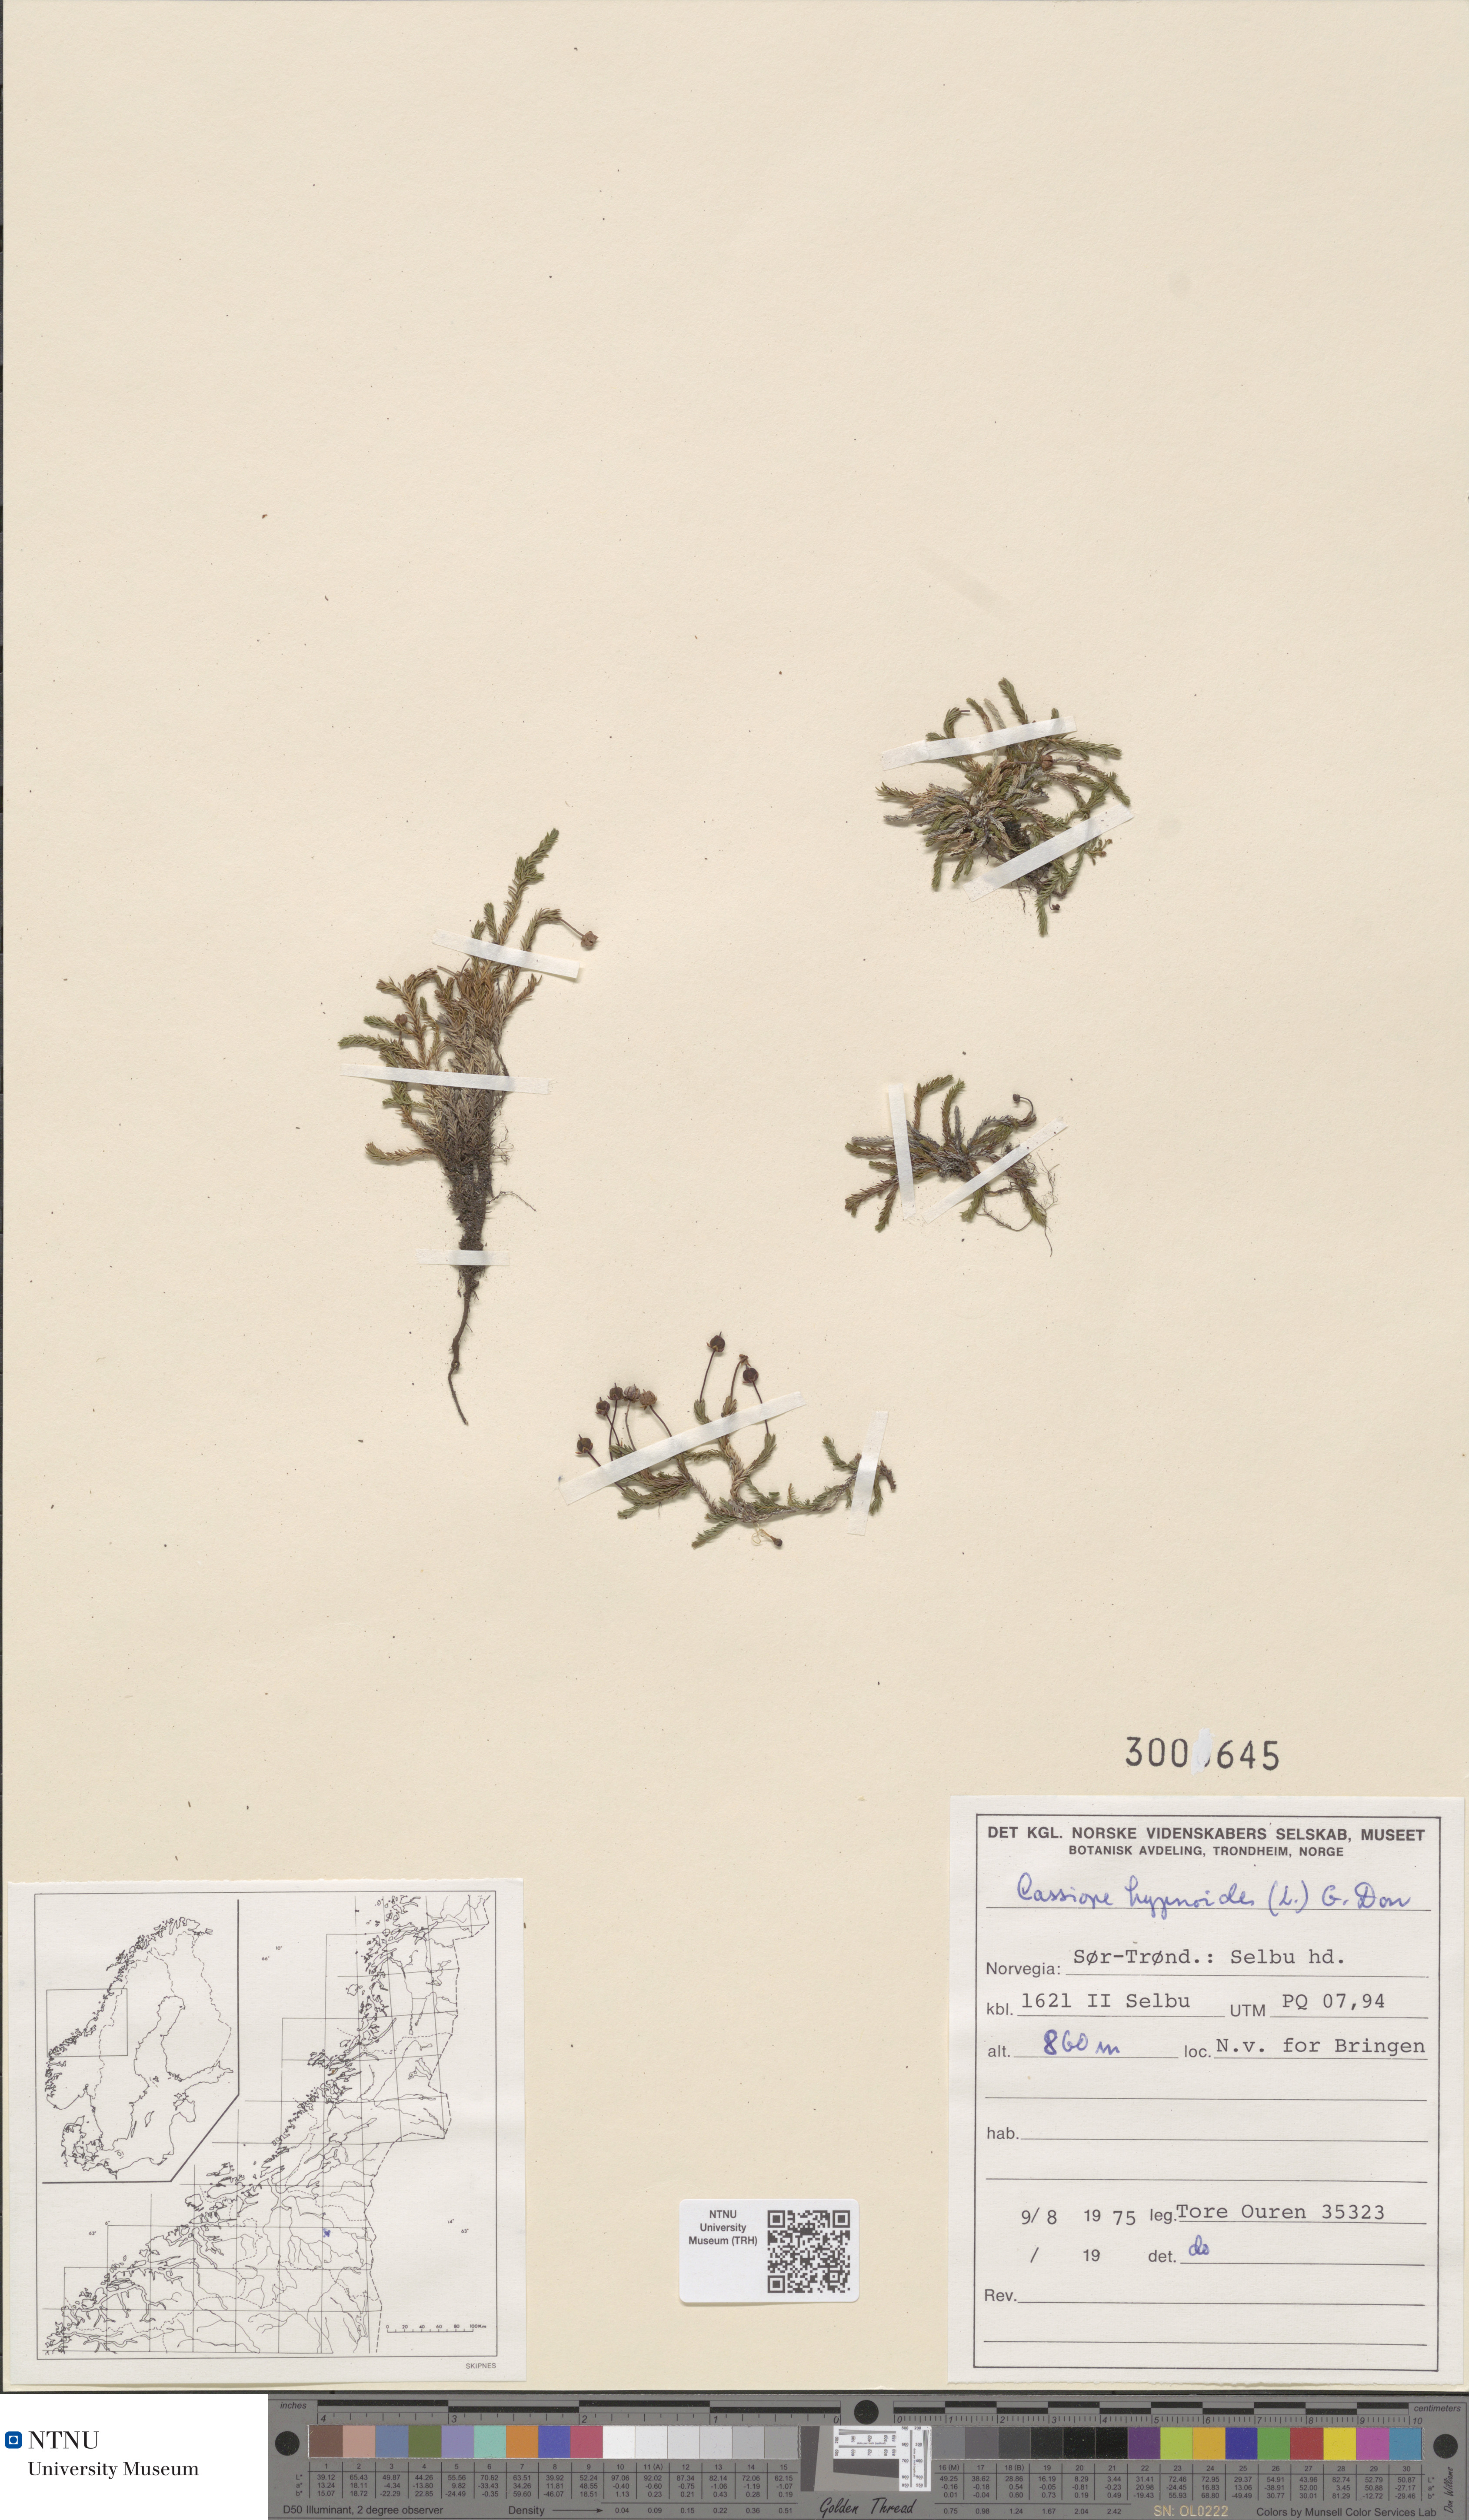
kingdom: Plantae
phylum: Tracheophyta
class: Magnoliopsida
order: Ericales
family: Ericaceae
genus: Harrimanella
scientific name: Harrimanella hypnoides
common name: Moss bell heather
